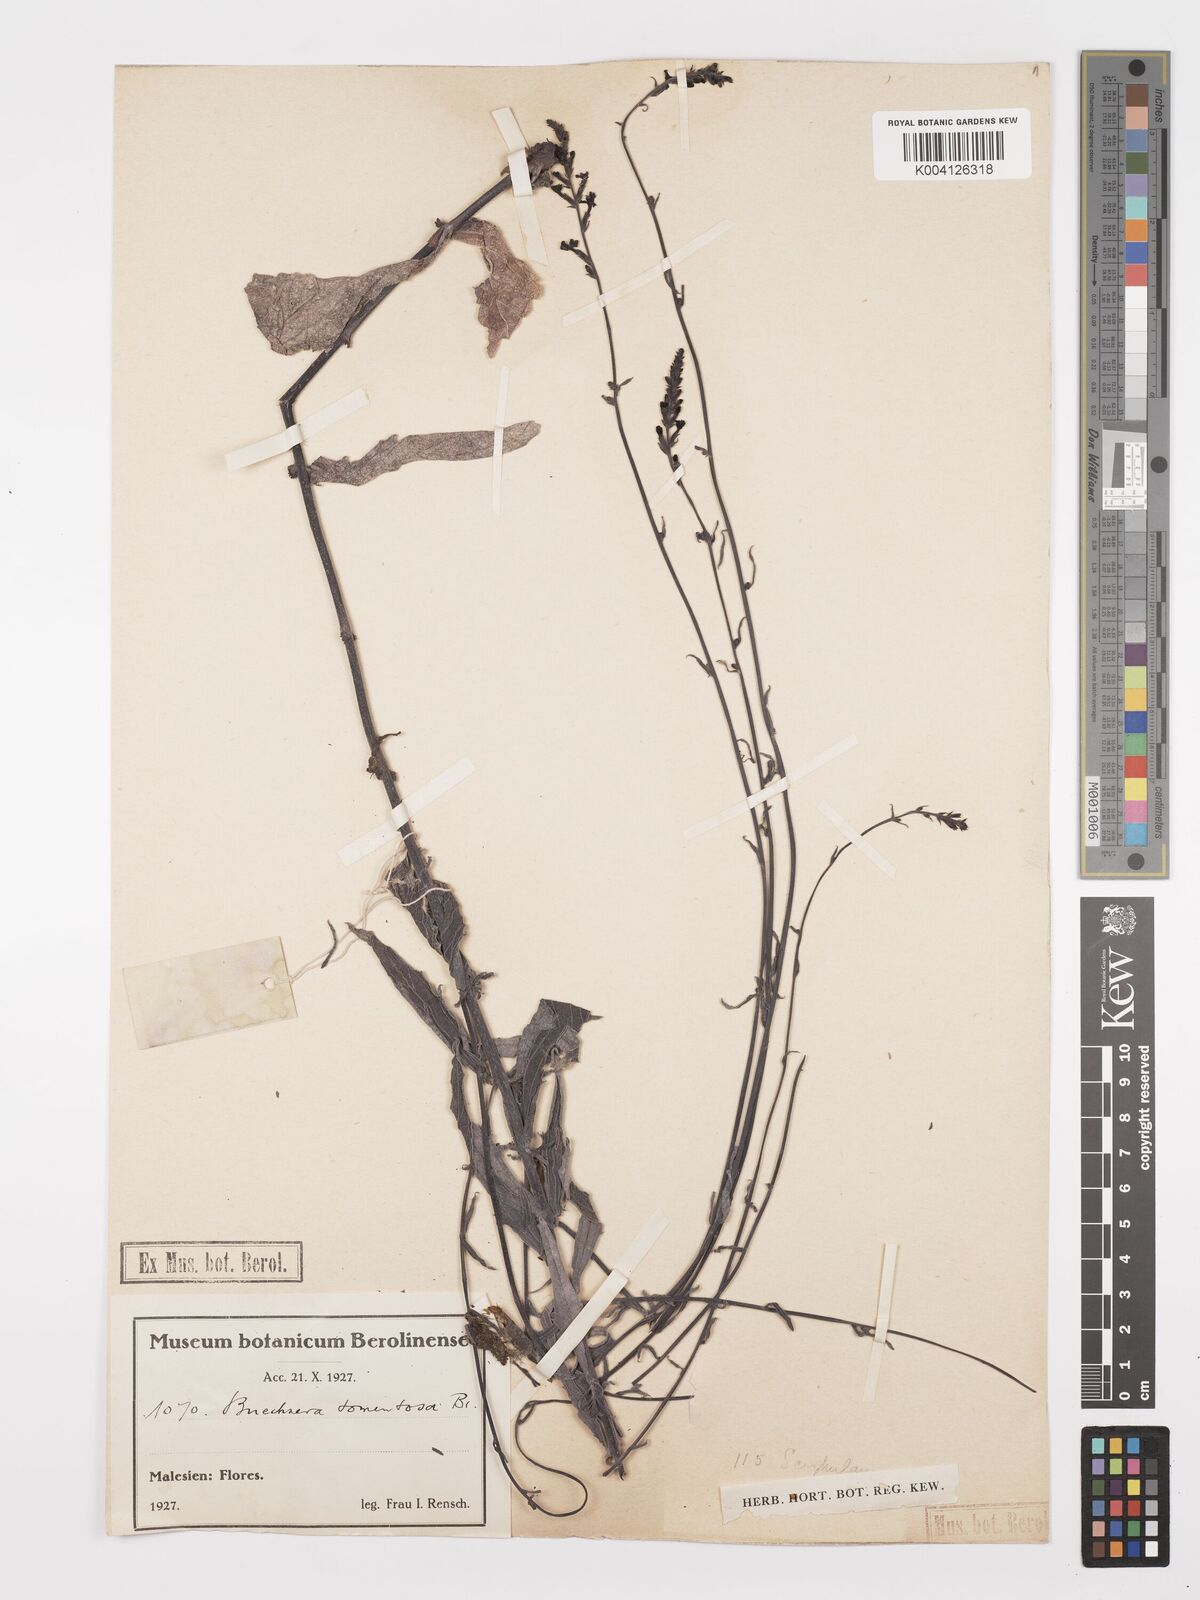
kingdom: Plantae
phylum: Tracheophyta
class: Magnoliopsida
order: Lamiales
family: Orobanchaceae
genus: Buchnera
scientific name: Buchnera tomentosa
